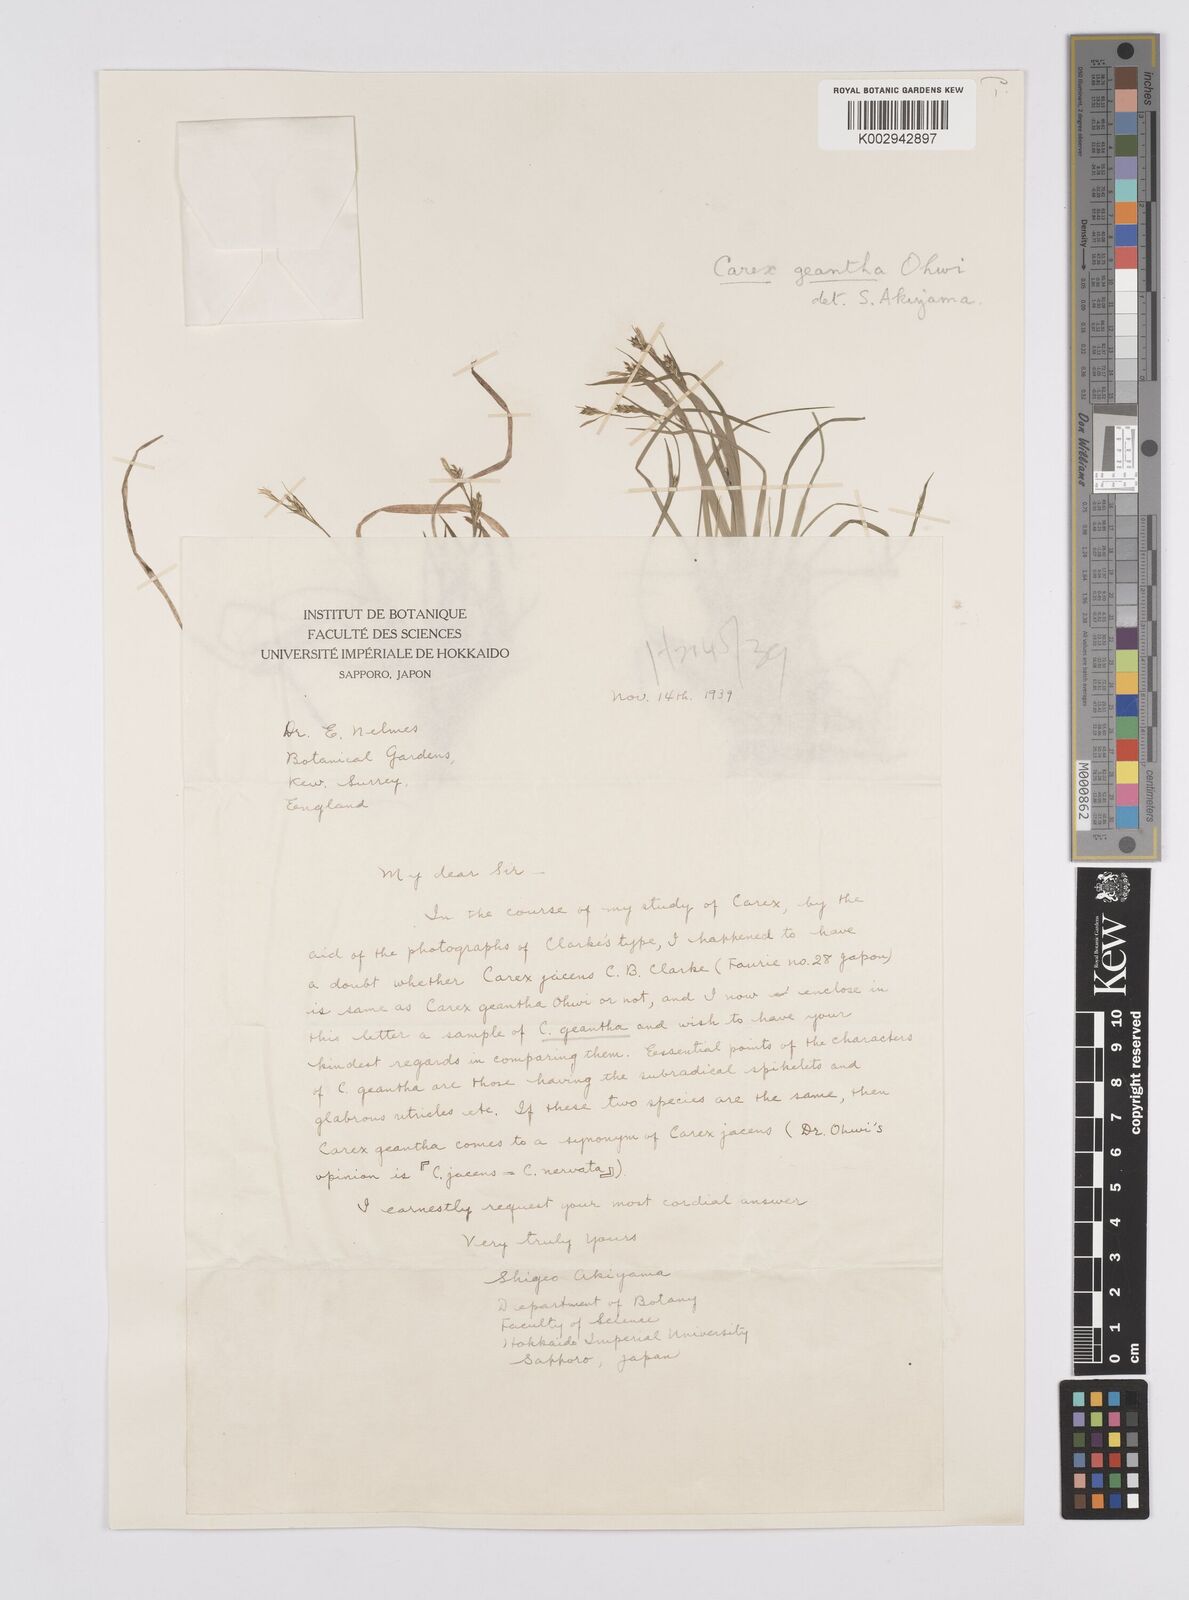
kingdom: Plantae
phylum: Tracheophyta
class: Liliopsida
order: Poales
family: Cyperaceae
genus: Carex
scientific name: Carex geantha
